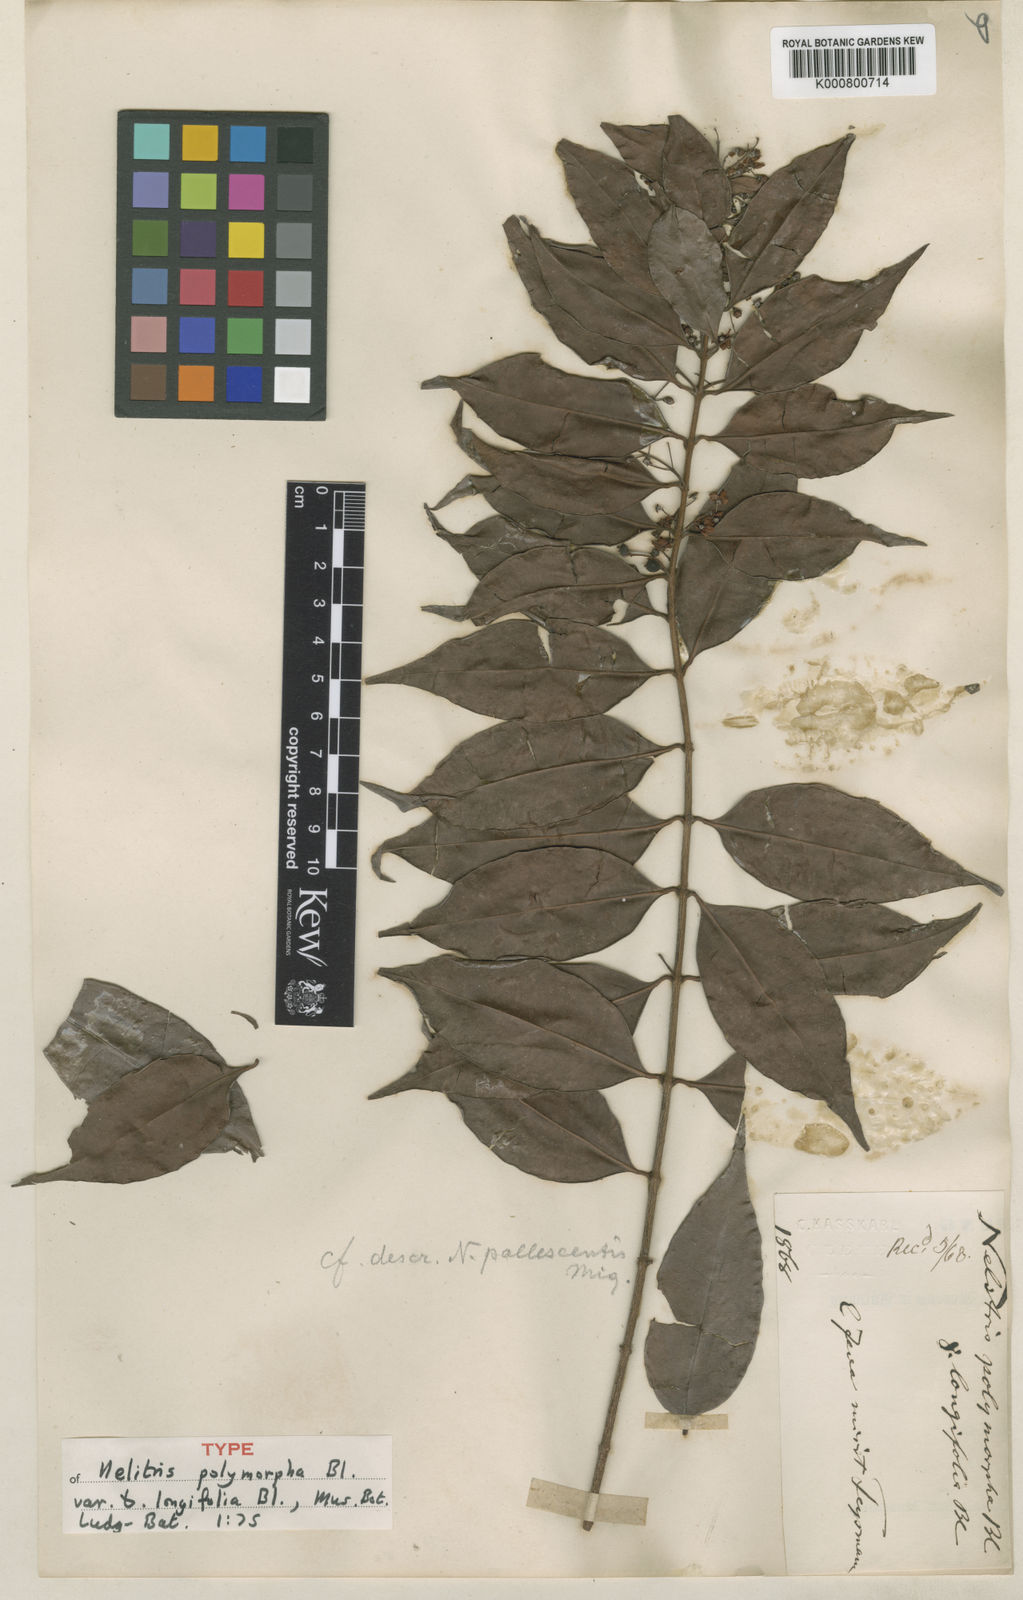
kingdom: Plantae
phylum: Tracheophyta
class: Magnoliopsida
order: Myrtales
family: Myrtaceae
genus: Decaspermum
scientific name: Decaspermum parviflorum
